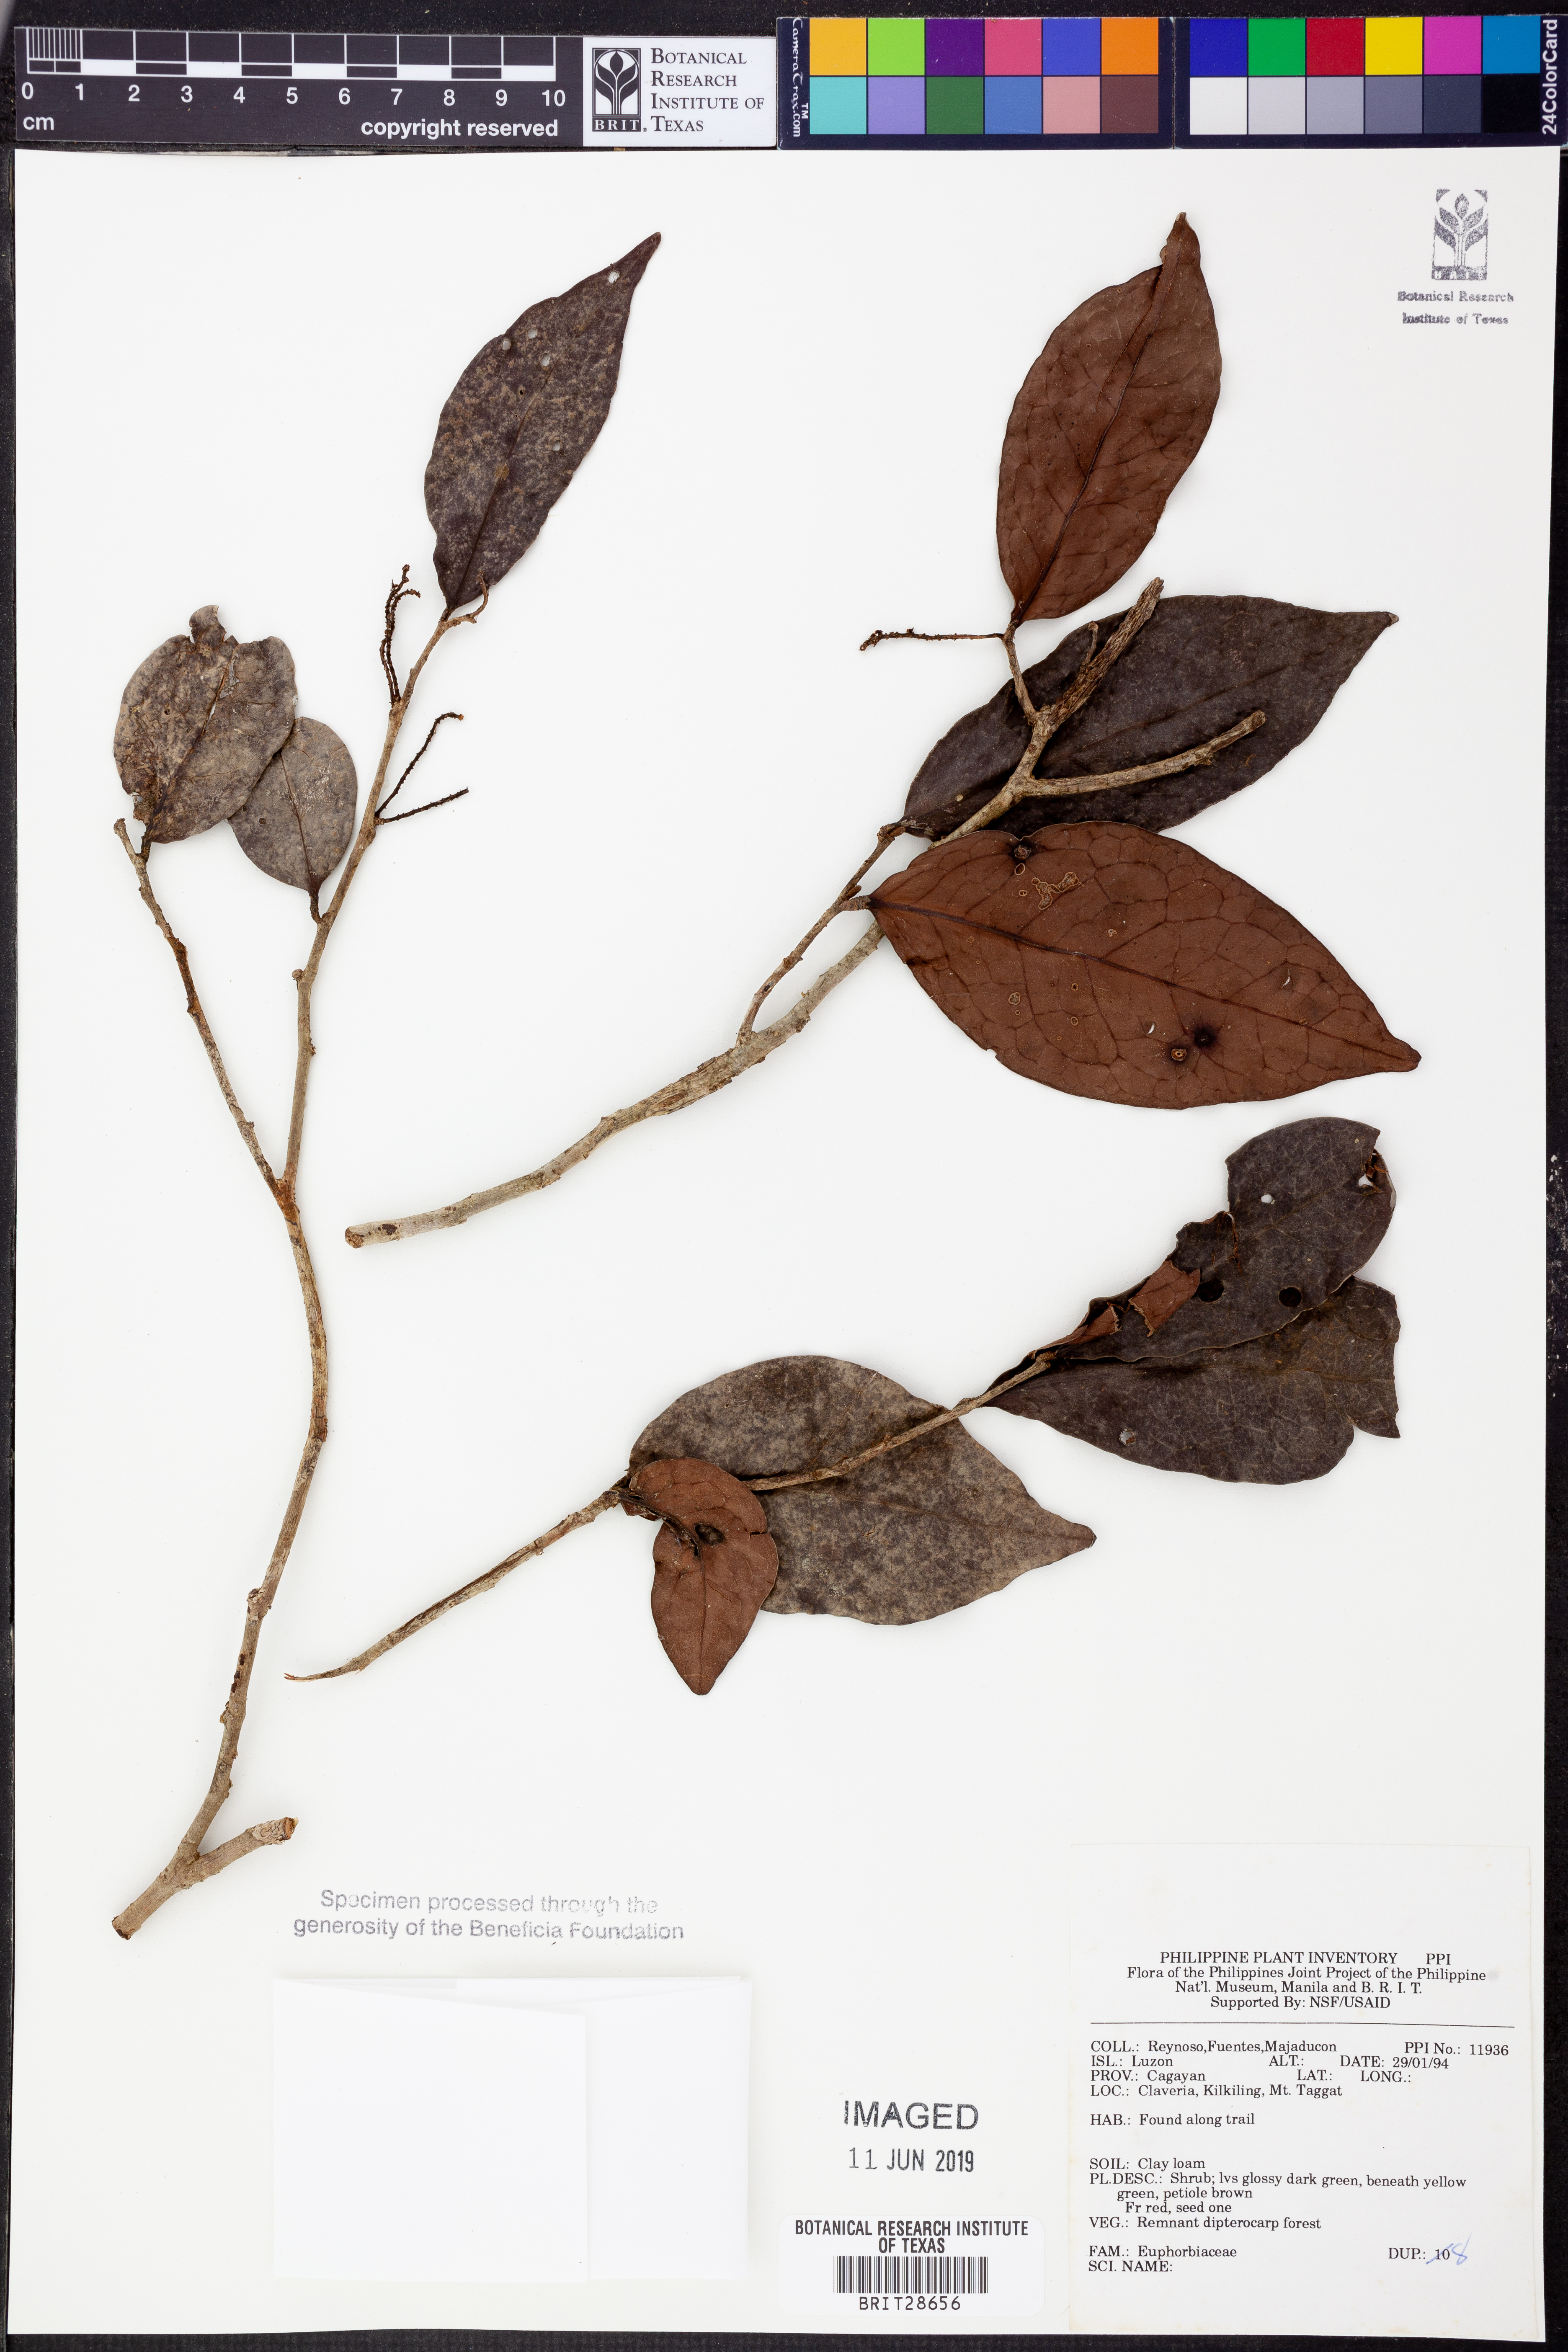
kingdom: Plantae
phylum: Tracheophyta
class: Magnoliopsida
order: Malpighiales
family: Euphorbiaceae
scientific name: Euphorbiaceae
